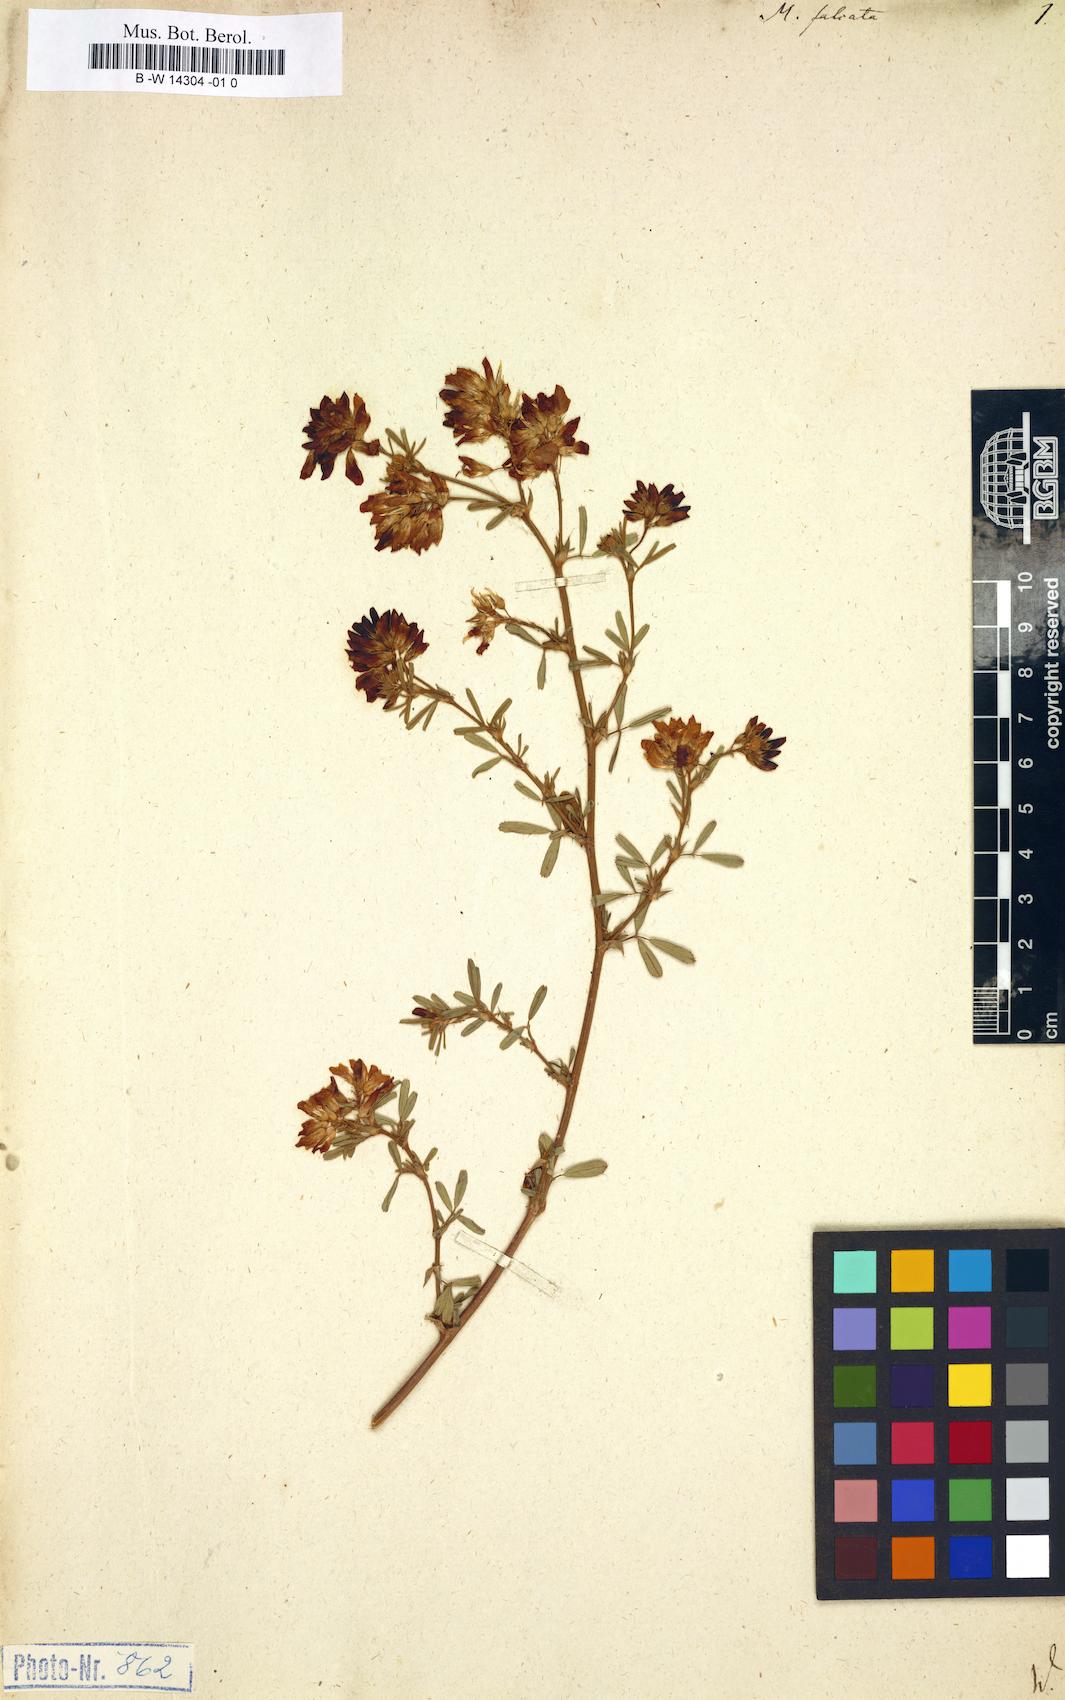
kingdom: Plantae
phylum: Tracheophyta
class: Magnoliopsida
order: Fabales
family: Fabaceae
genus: Medicago
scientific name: Medicago falcata
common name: Sickle medick
